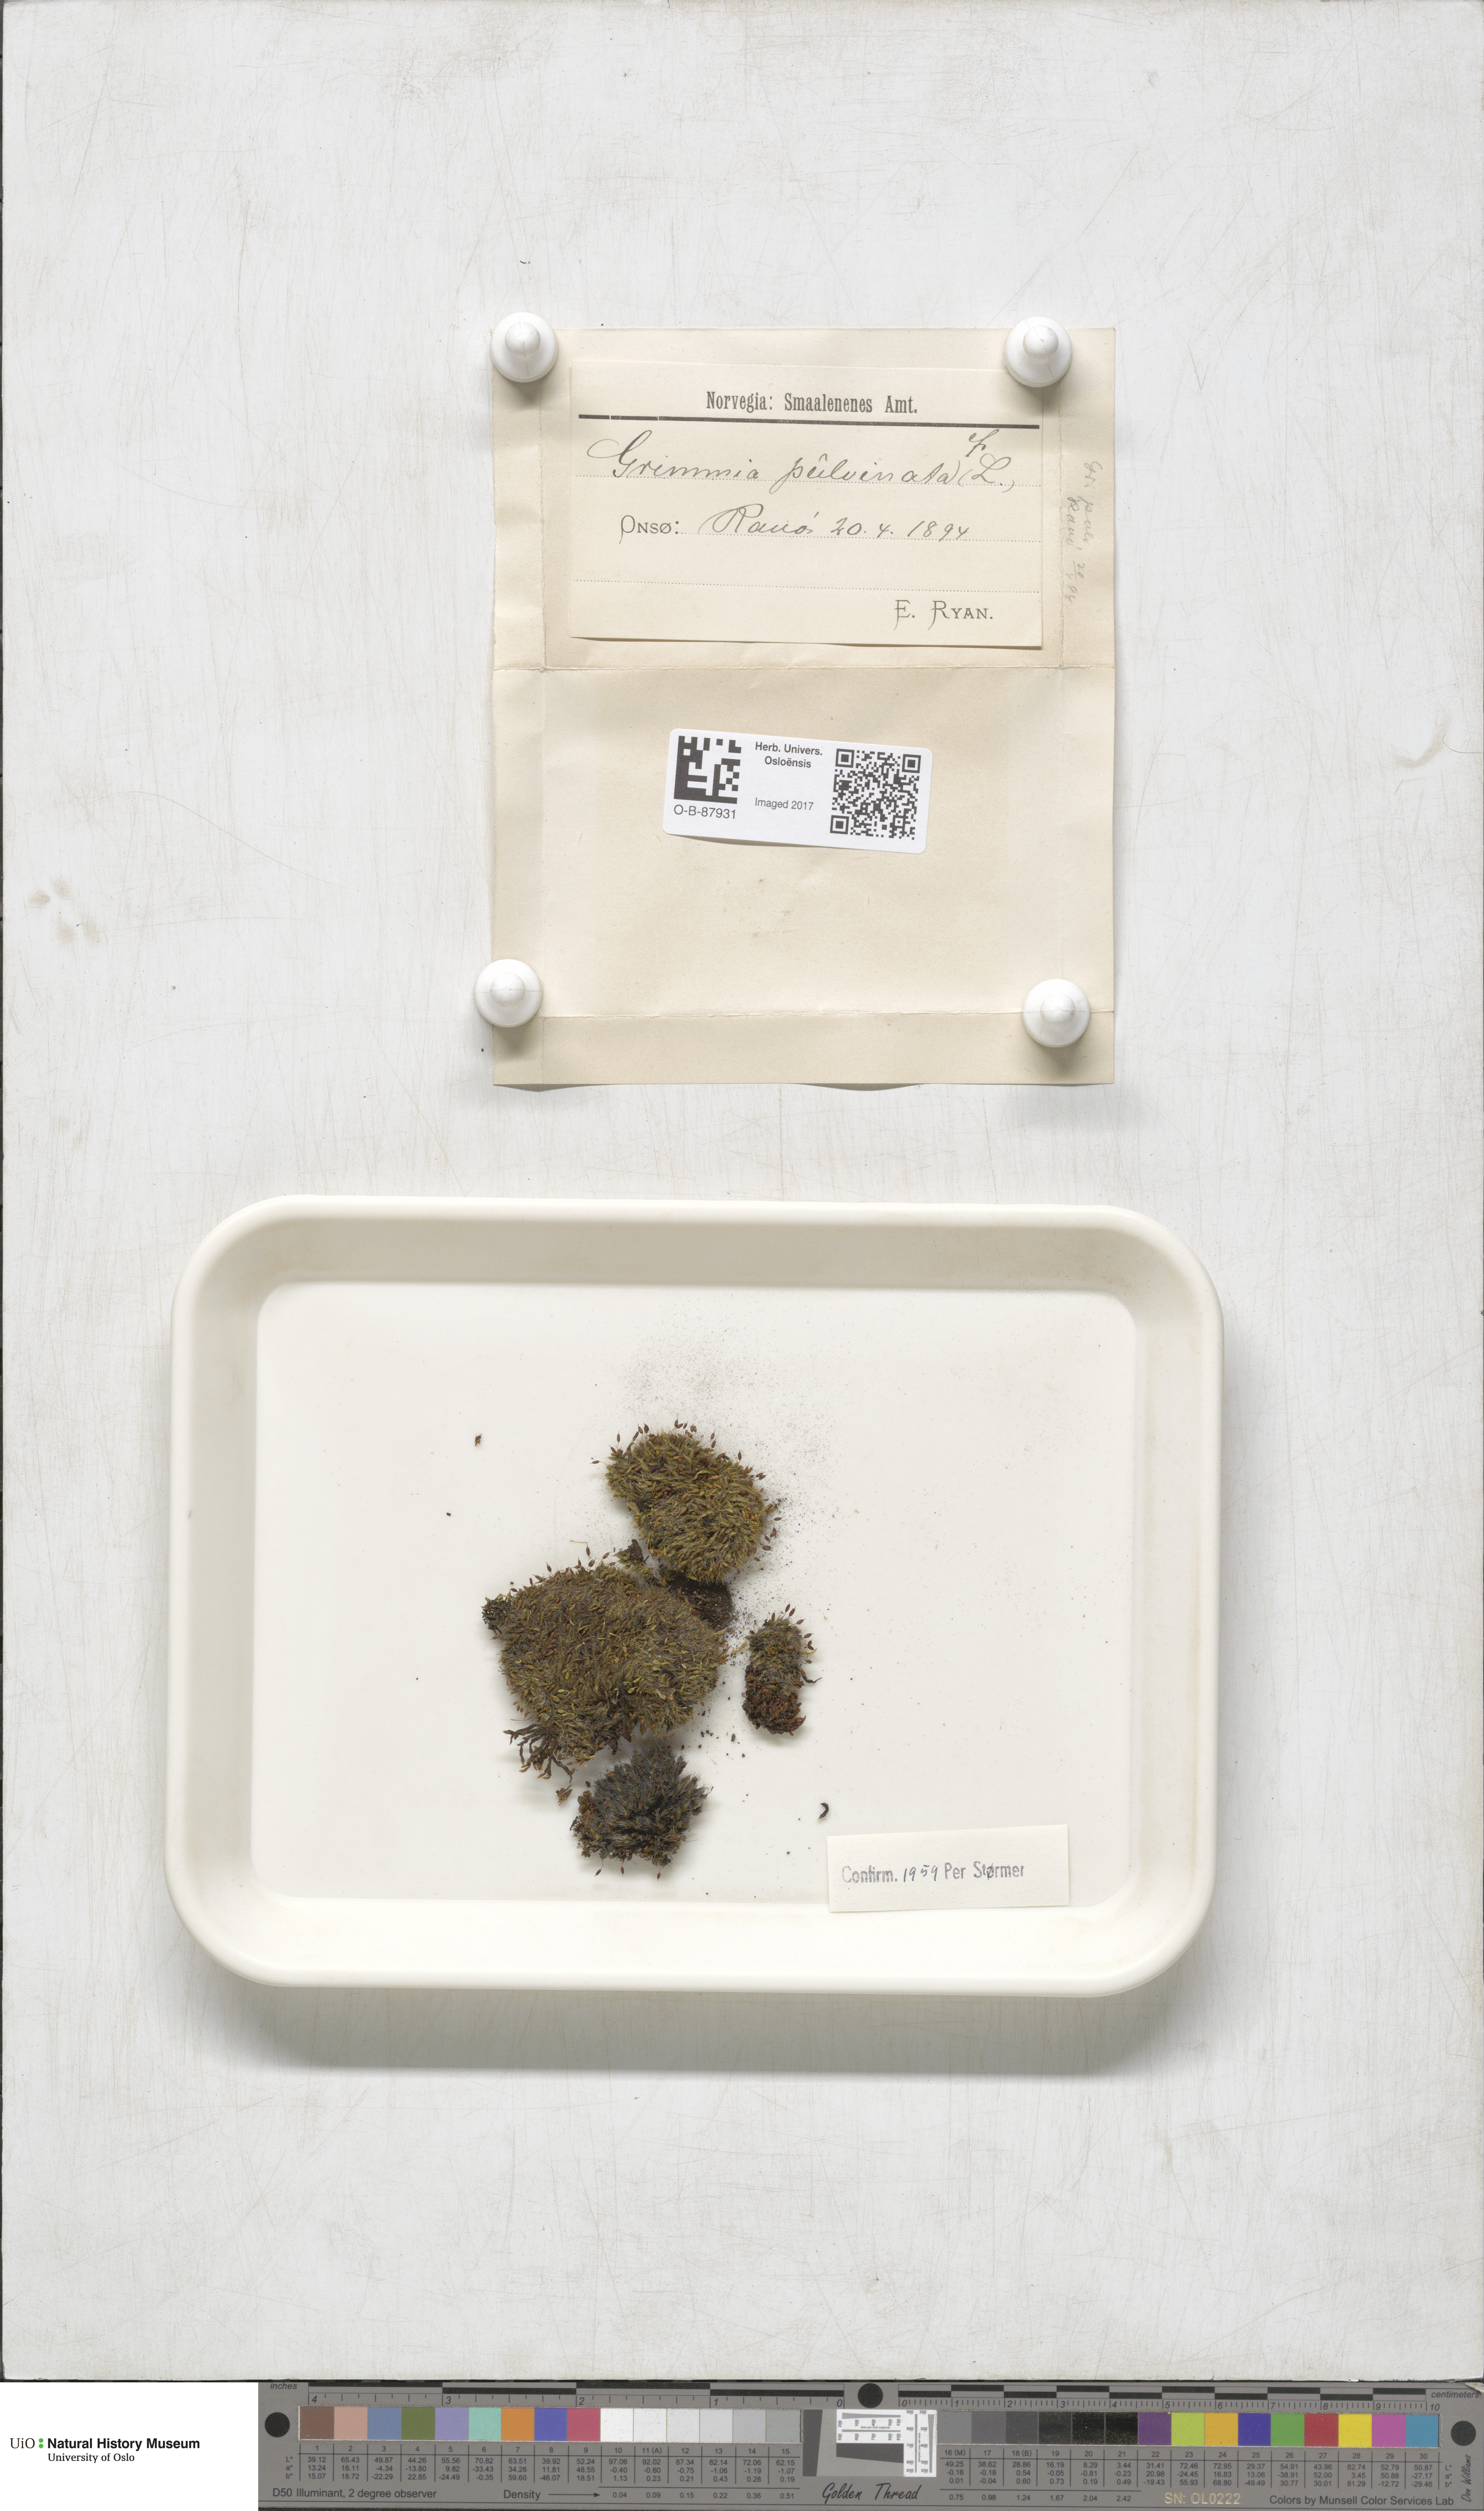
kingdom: Plantae
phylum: Bryophyta
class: Bryopsida
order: Grimmiales
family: Grimmiaceae
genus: Grimmia
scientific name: Grimmia pulvinata
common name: Grey-cushioned grimmia
